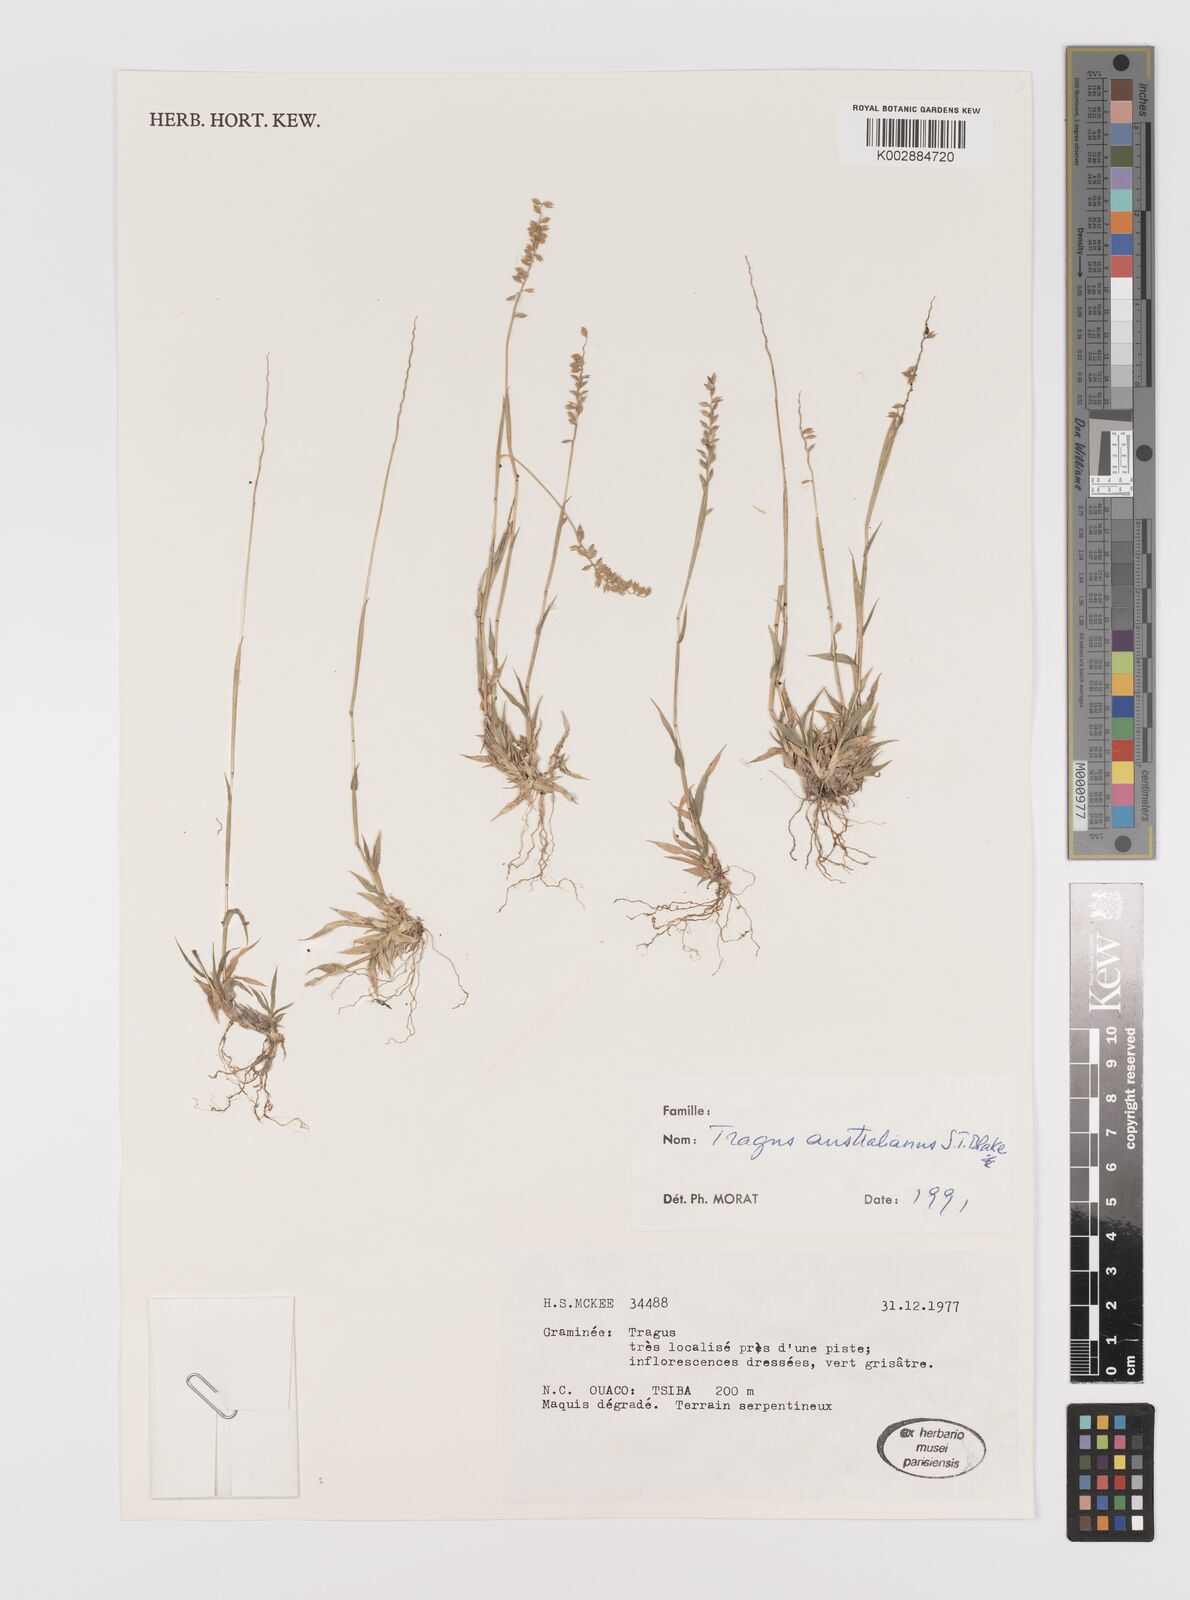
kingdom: Plantae
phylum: Tracheophyta
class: Liliopsida
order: Poales
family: Poaceae
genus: Tragus
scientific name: Tragus australianus
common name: Australian bur-grass
